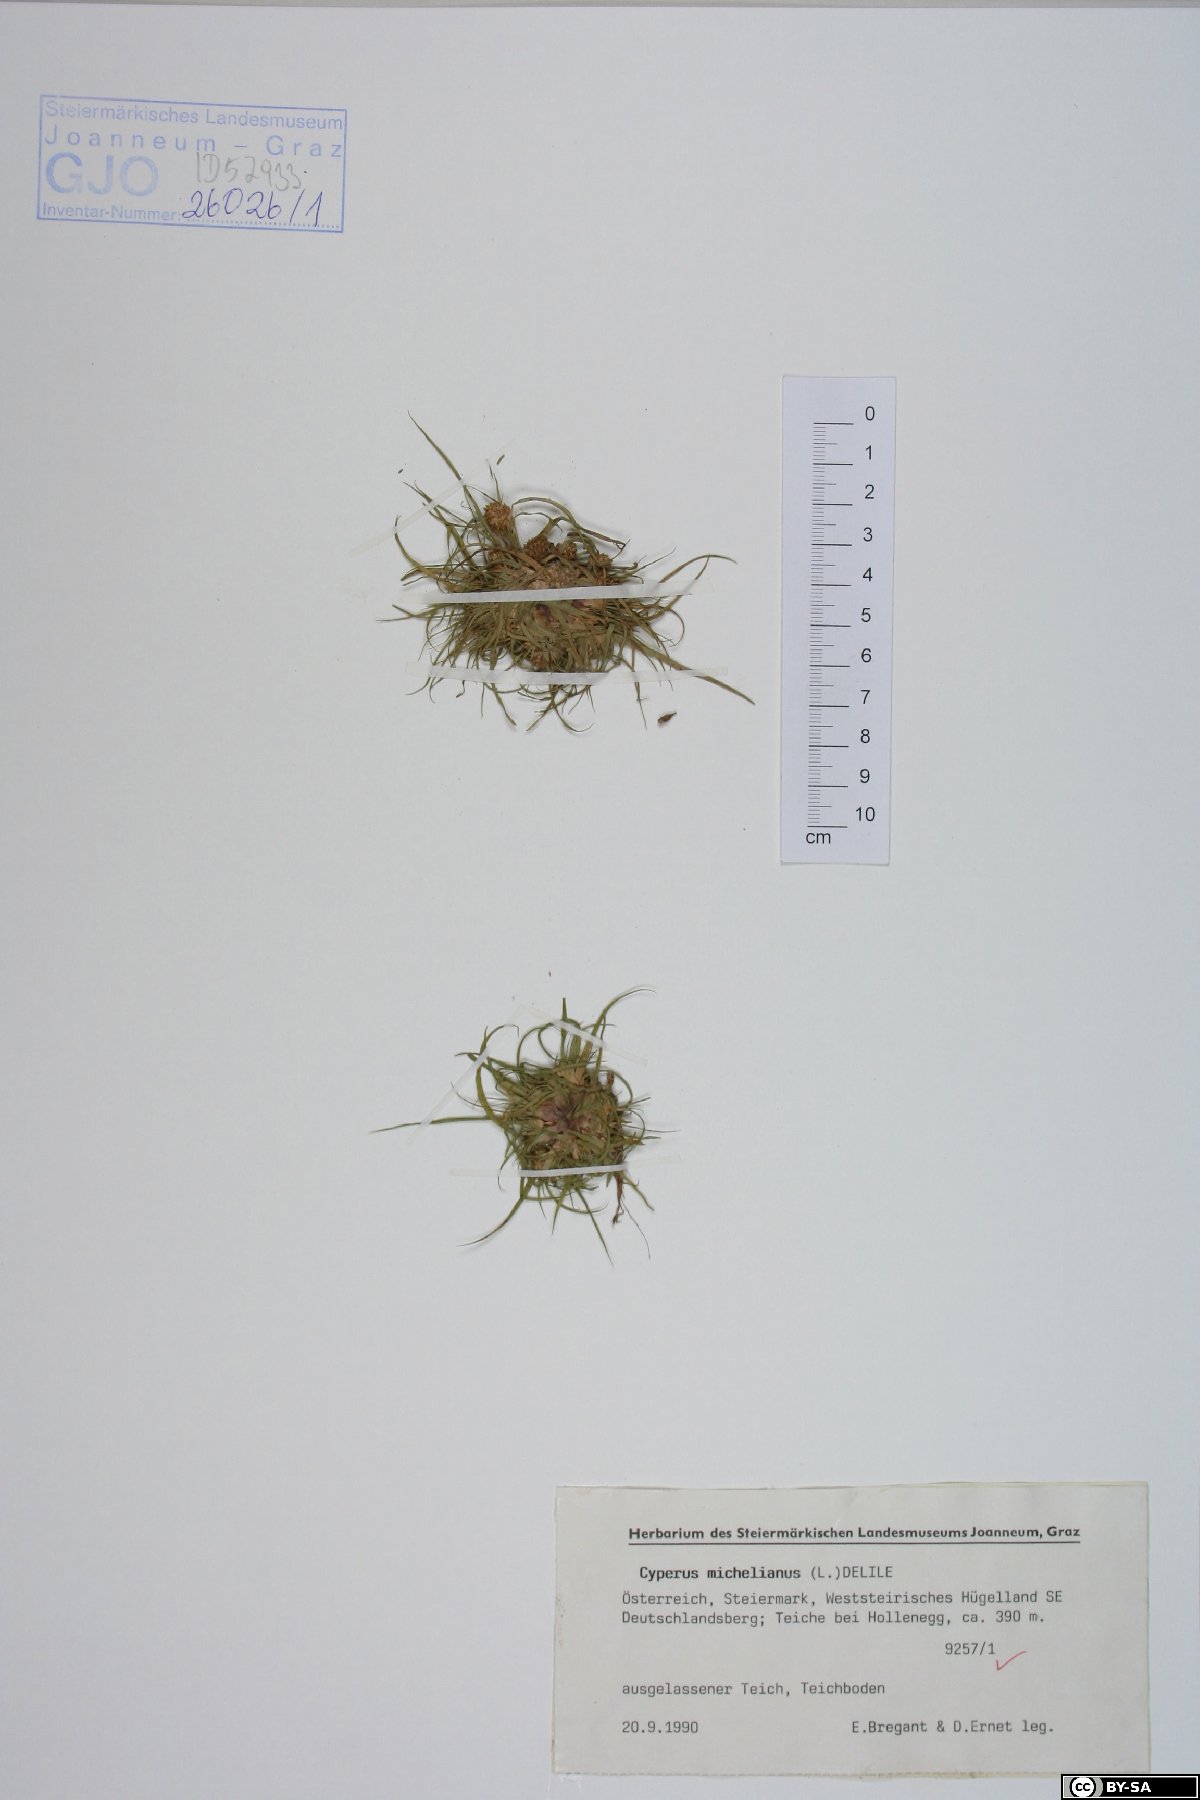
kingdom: Plantae
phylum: Tracheophyta
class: Liliopsida
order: Poales
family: Cyperaceae
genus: Cyperus
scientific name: Cyperus michelianus
